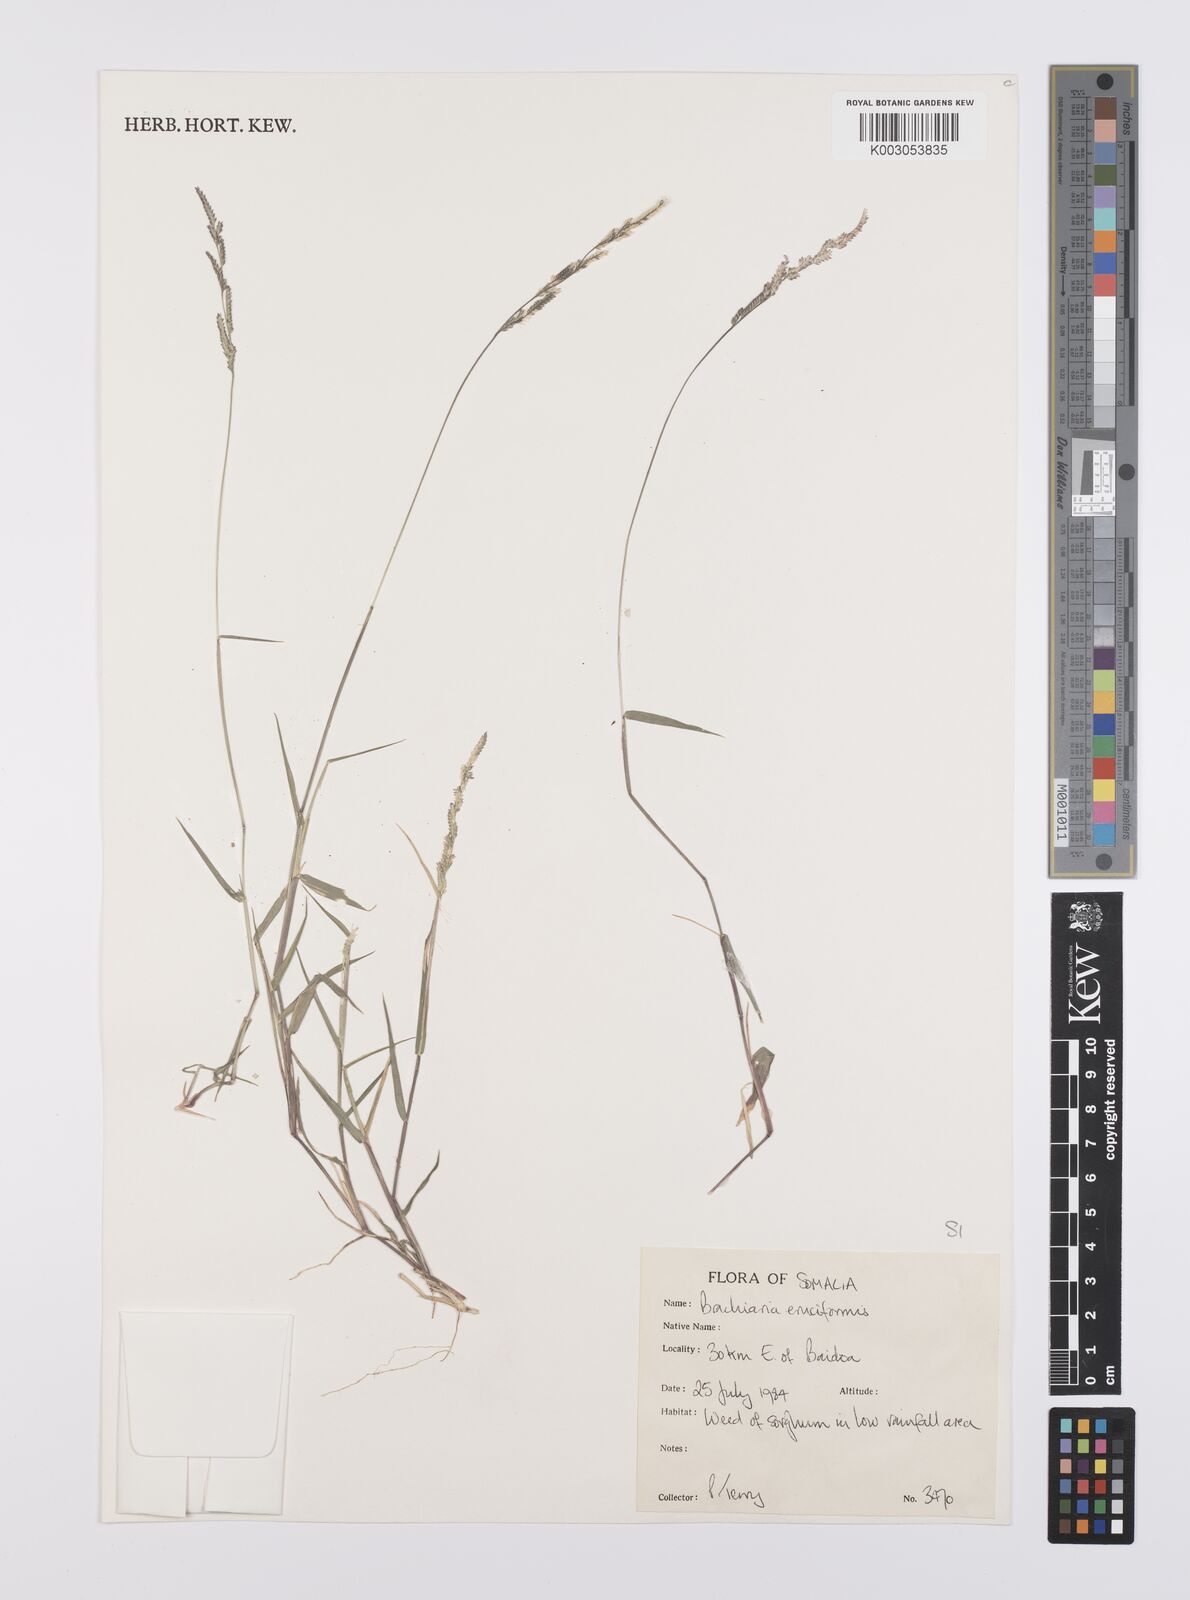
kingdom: Plantae
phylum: Tracheophyta
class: Liliopsida
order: Poales
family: Poaceae
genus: Moorochloa
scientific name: Moorochloa eruciformis
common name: Sweet signalgrass
